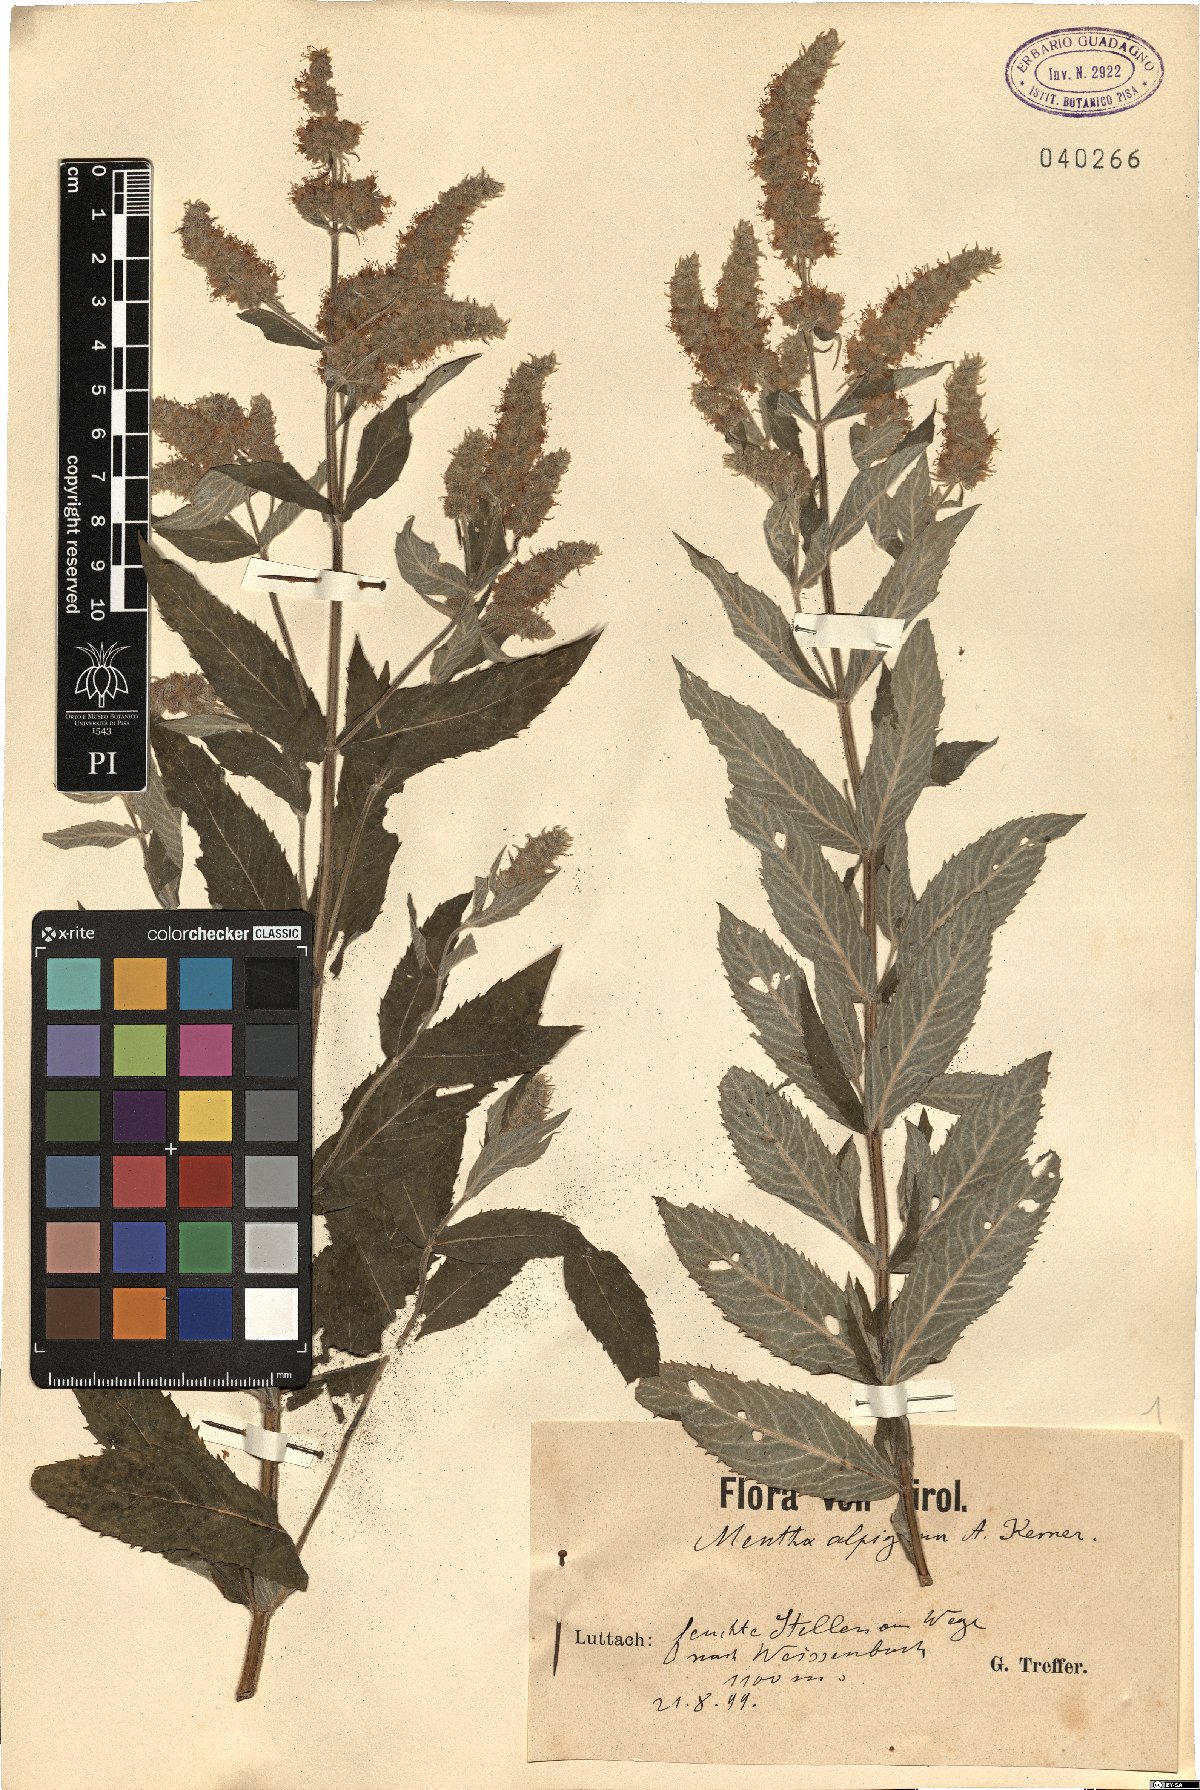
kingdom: Plantae
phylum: Tracheophyta
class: Magnoliopsida
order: Lamiales
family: Lamiaceae
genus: Mentha
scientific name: Mentha longifolia
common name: Horse mint
